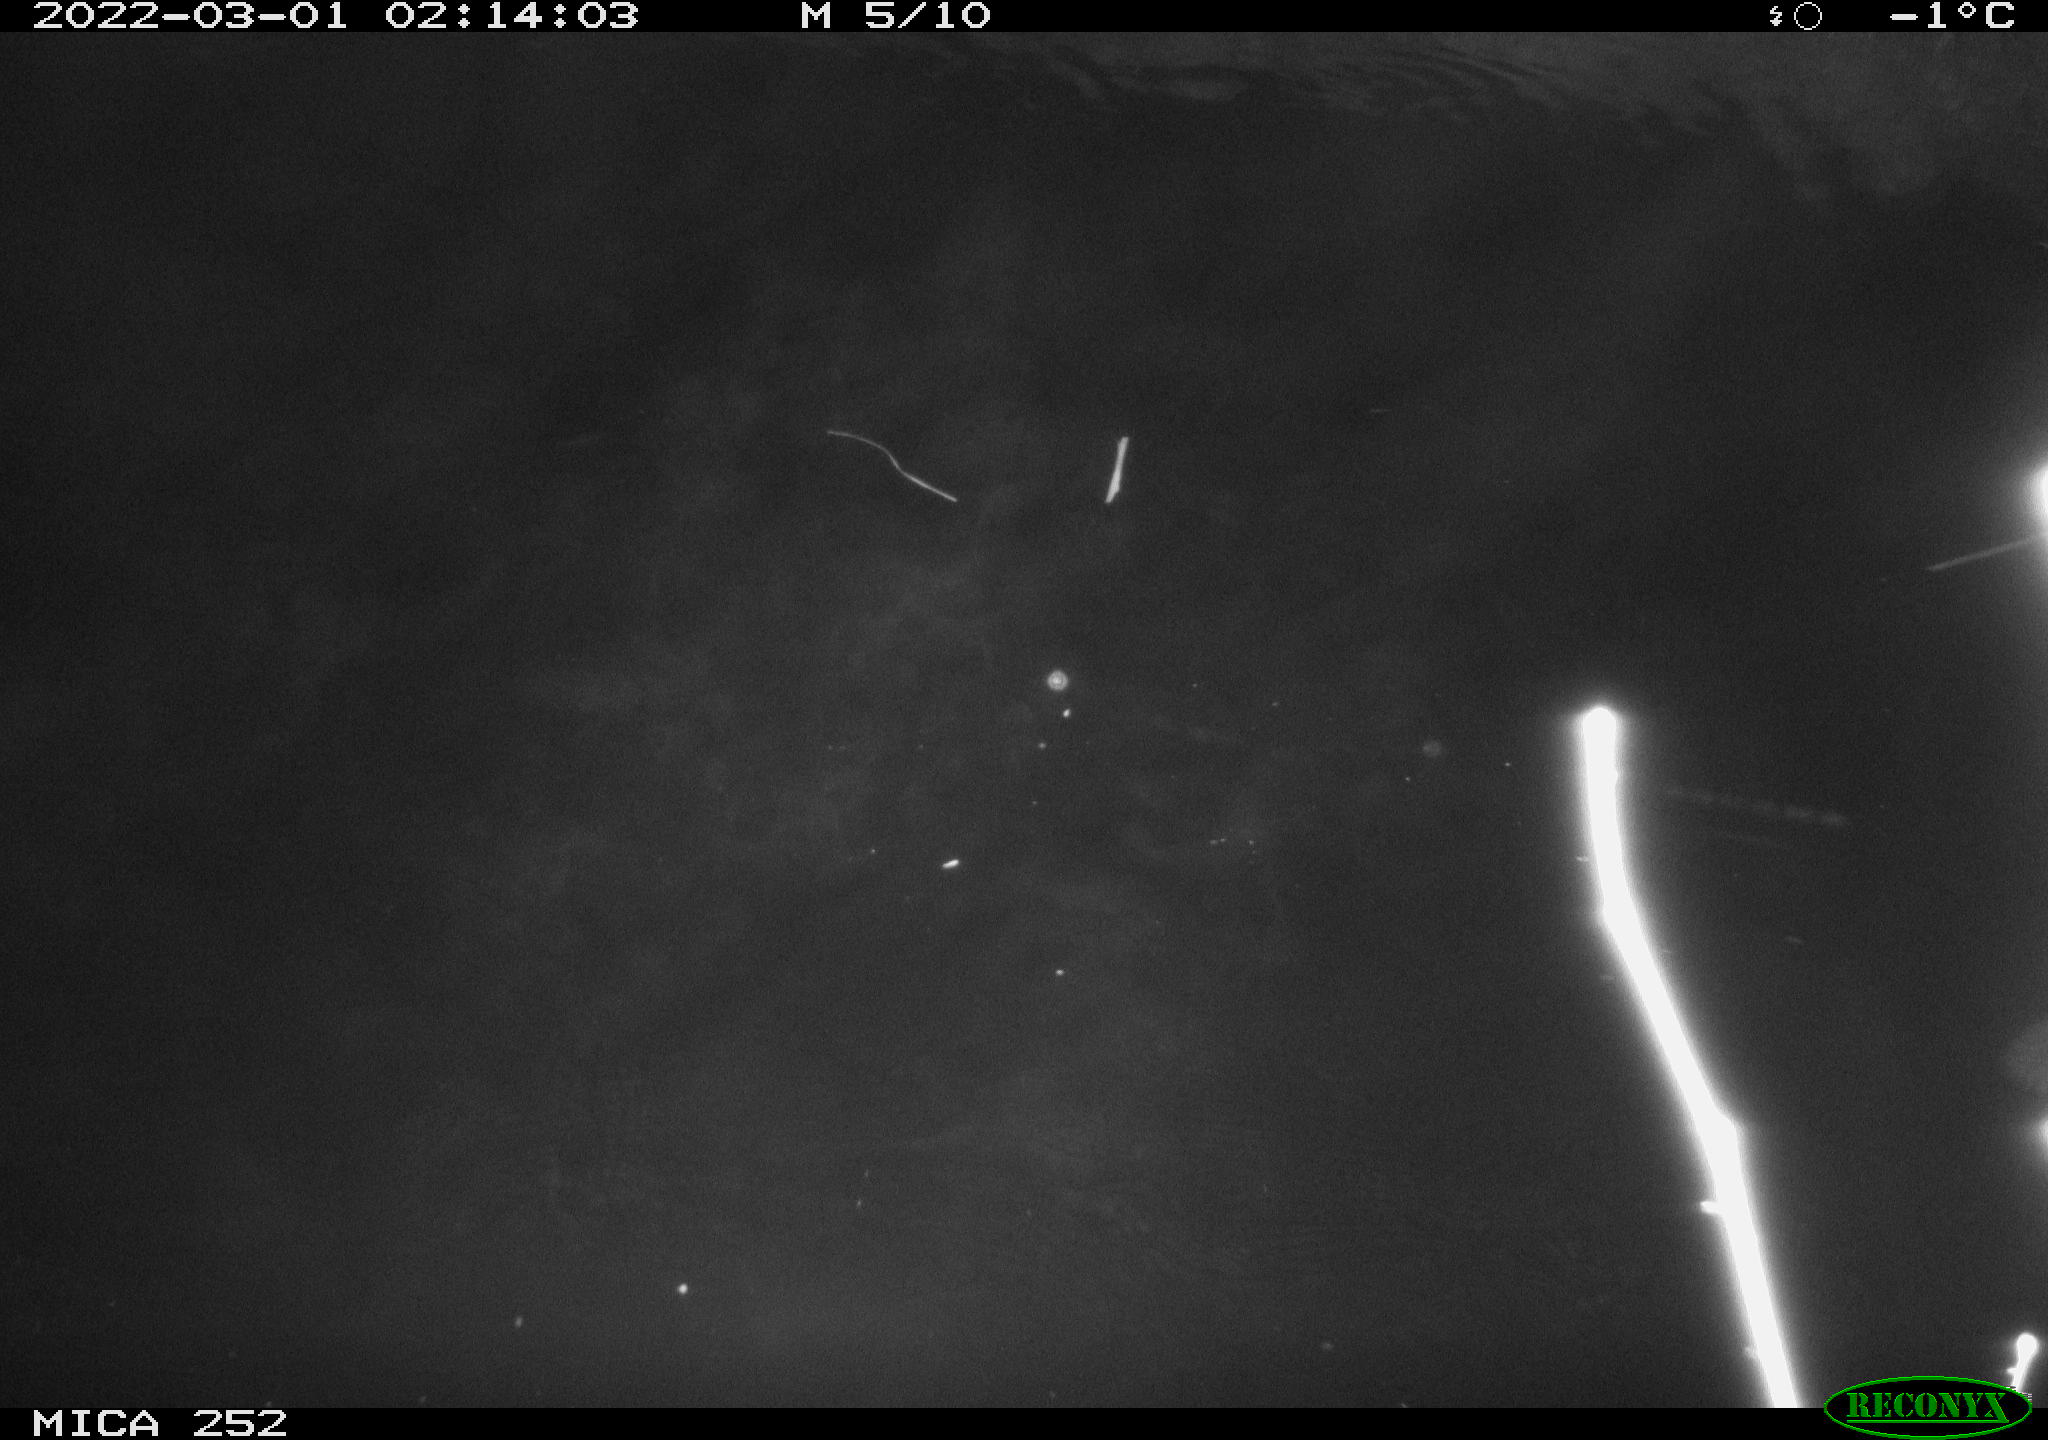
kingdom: Animalia
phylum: Chordata
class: Mammalia
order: Rodentia
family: Castoridae
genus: Castor
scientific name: Castor fiber
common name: Eurasian beaver
